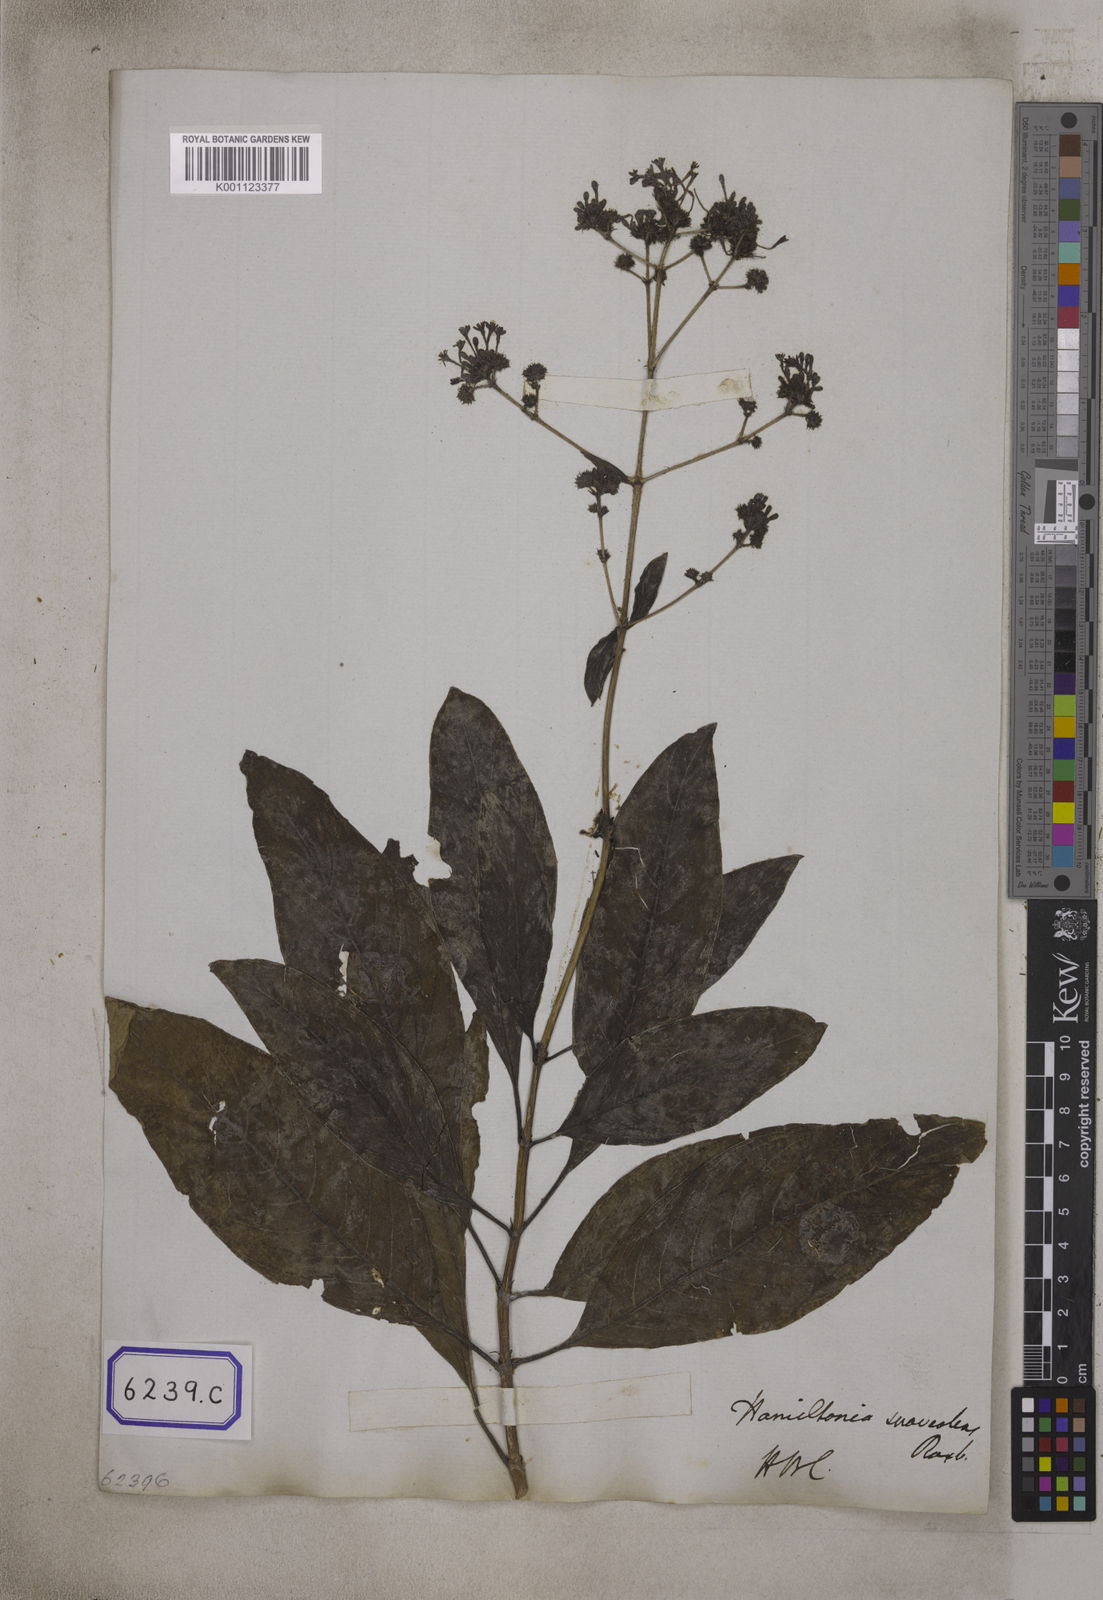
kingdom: Plantae
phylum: Tracheophyta
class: Magnoliopsida
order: Gentianales
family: Rubiaceae
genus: Spermadictyon
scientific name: Spermadictyon suaveolens
